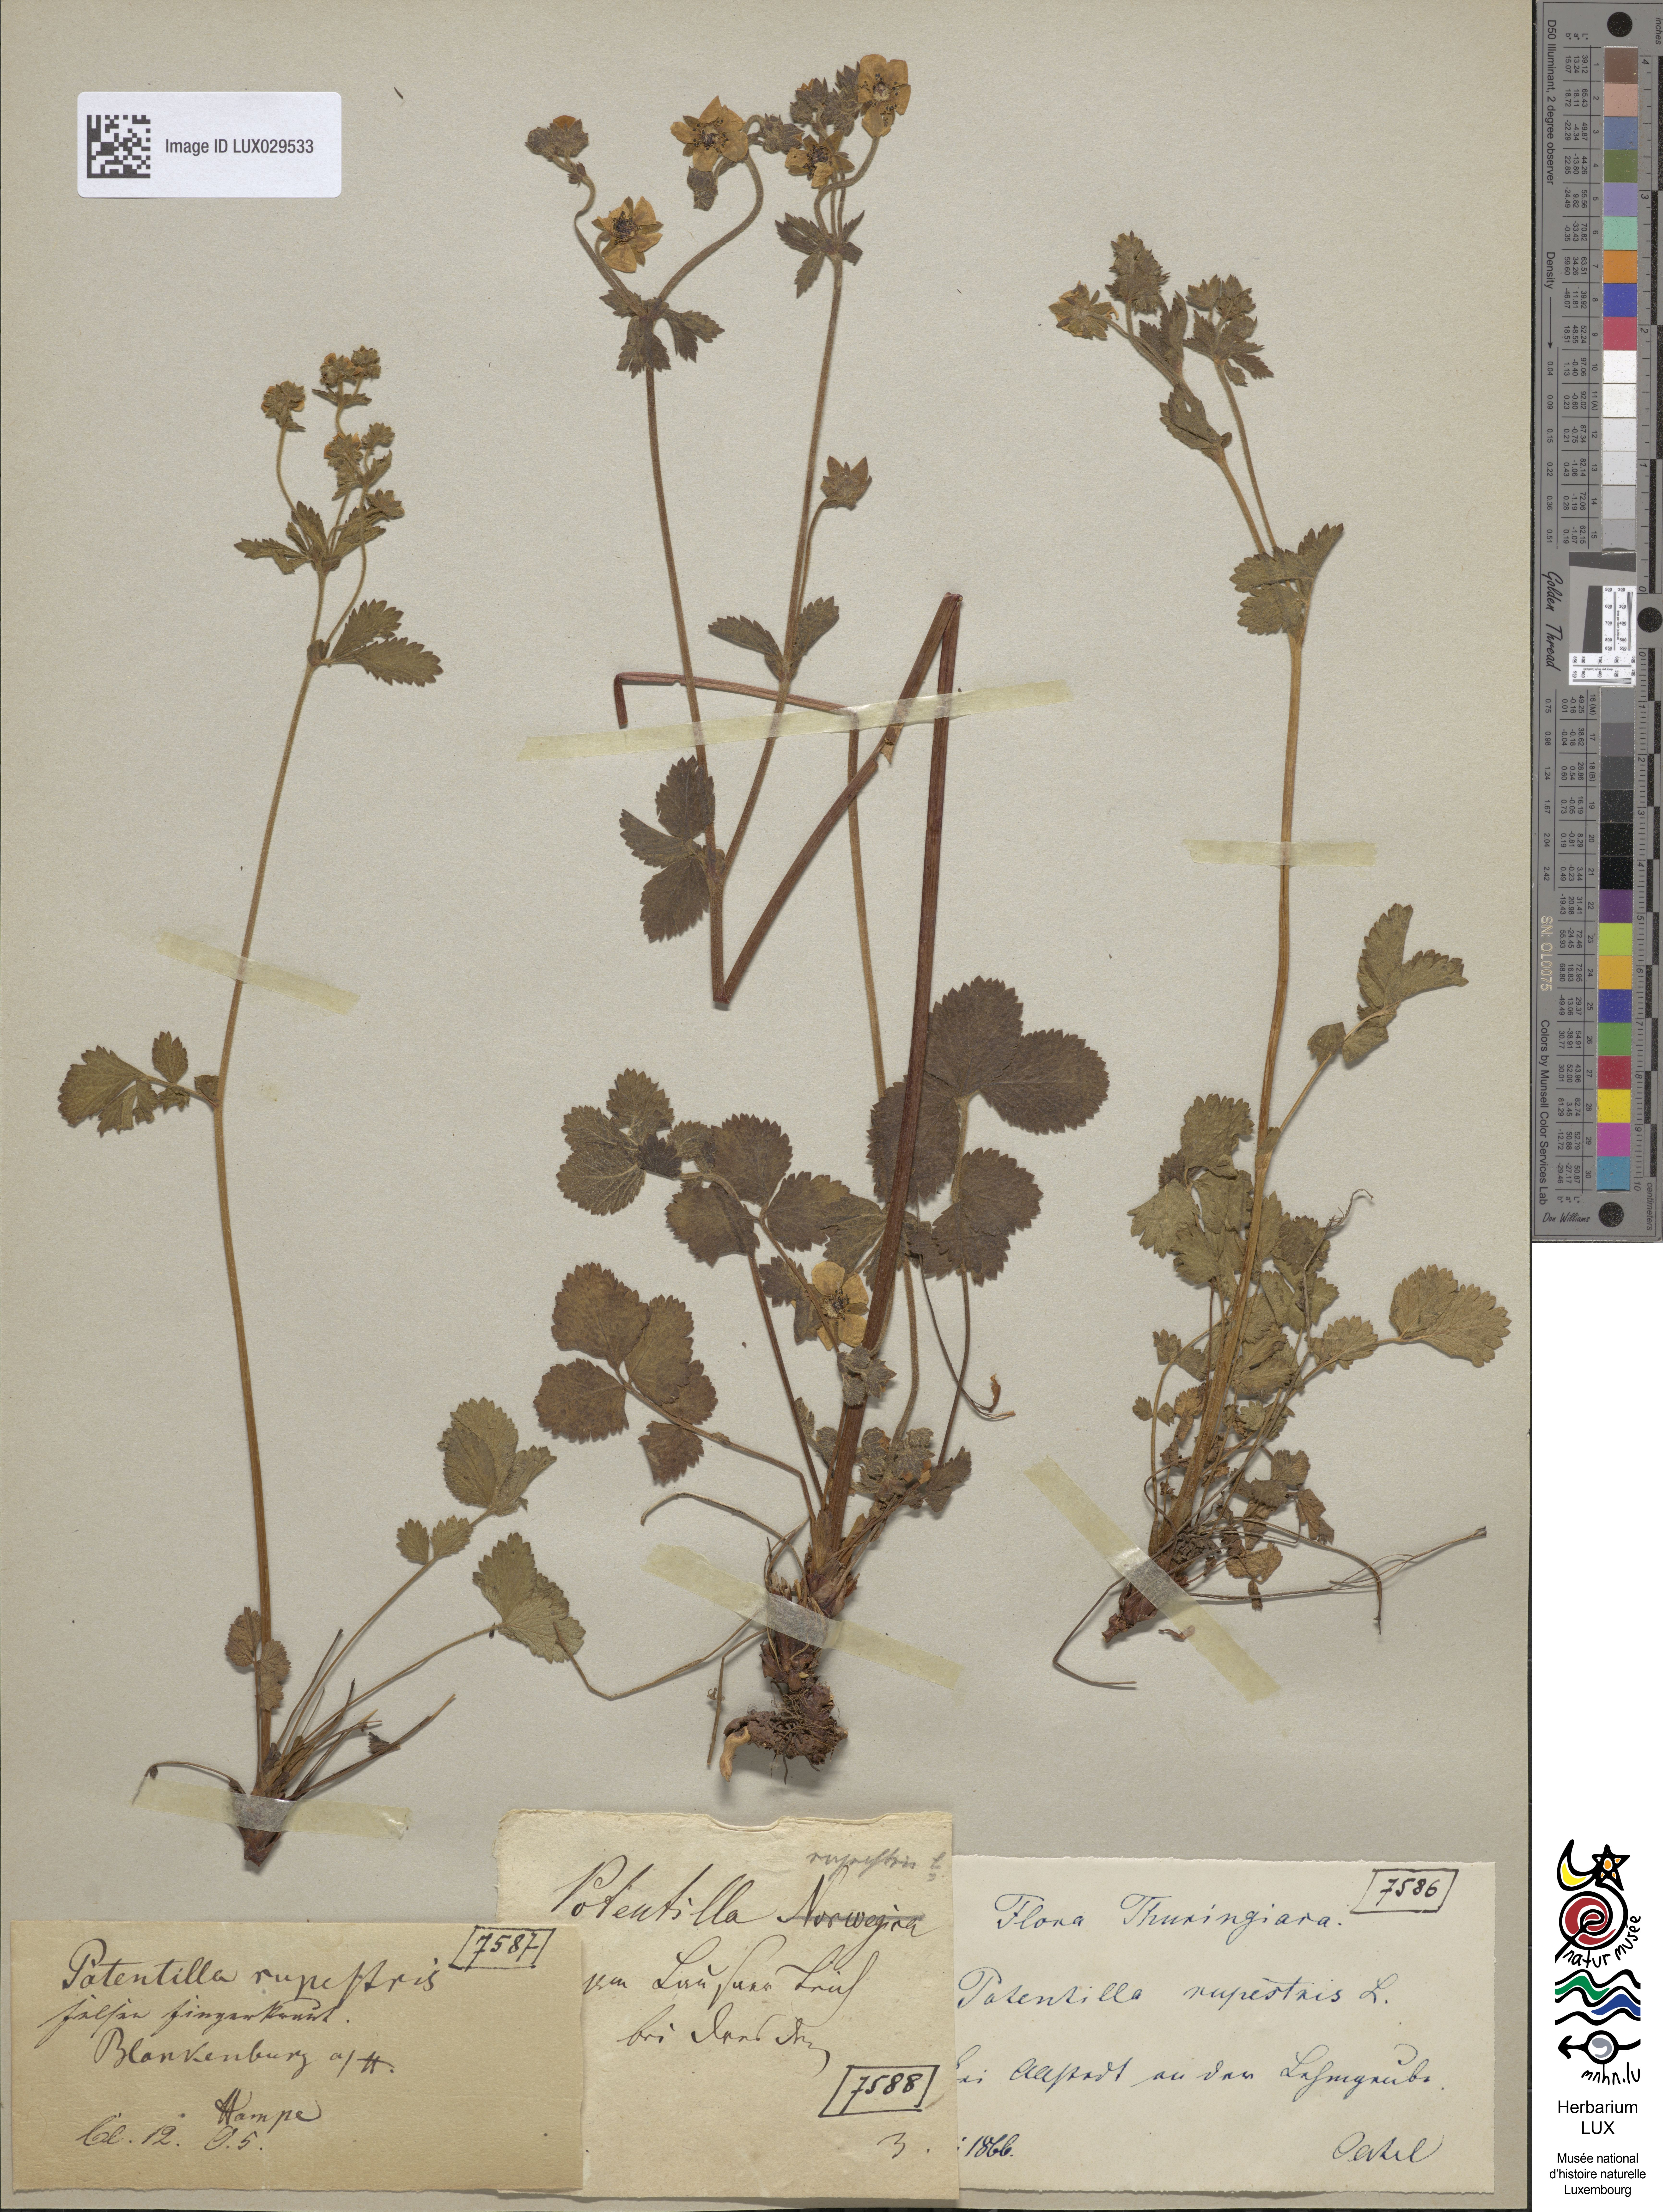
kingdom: Plantae
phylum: Tracheophyta
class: Magnoliopsida
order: Rosales
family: Rosaceae
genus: Drymocallis
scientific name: Drymocallis rupestris
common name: Rock cinquefoil
